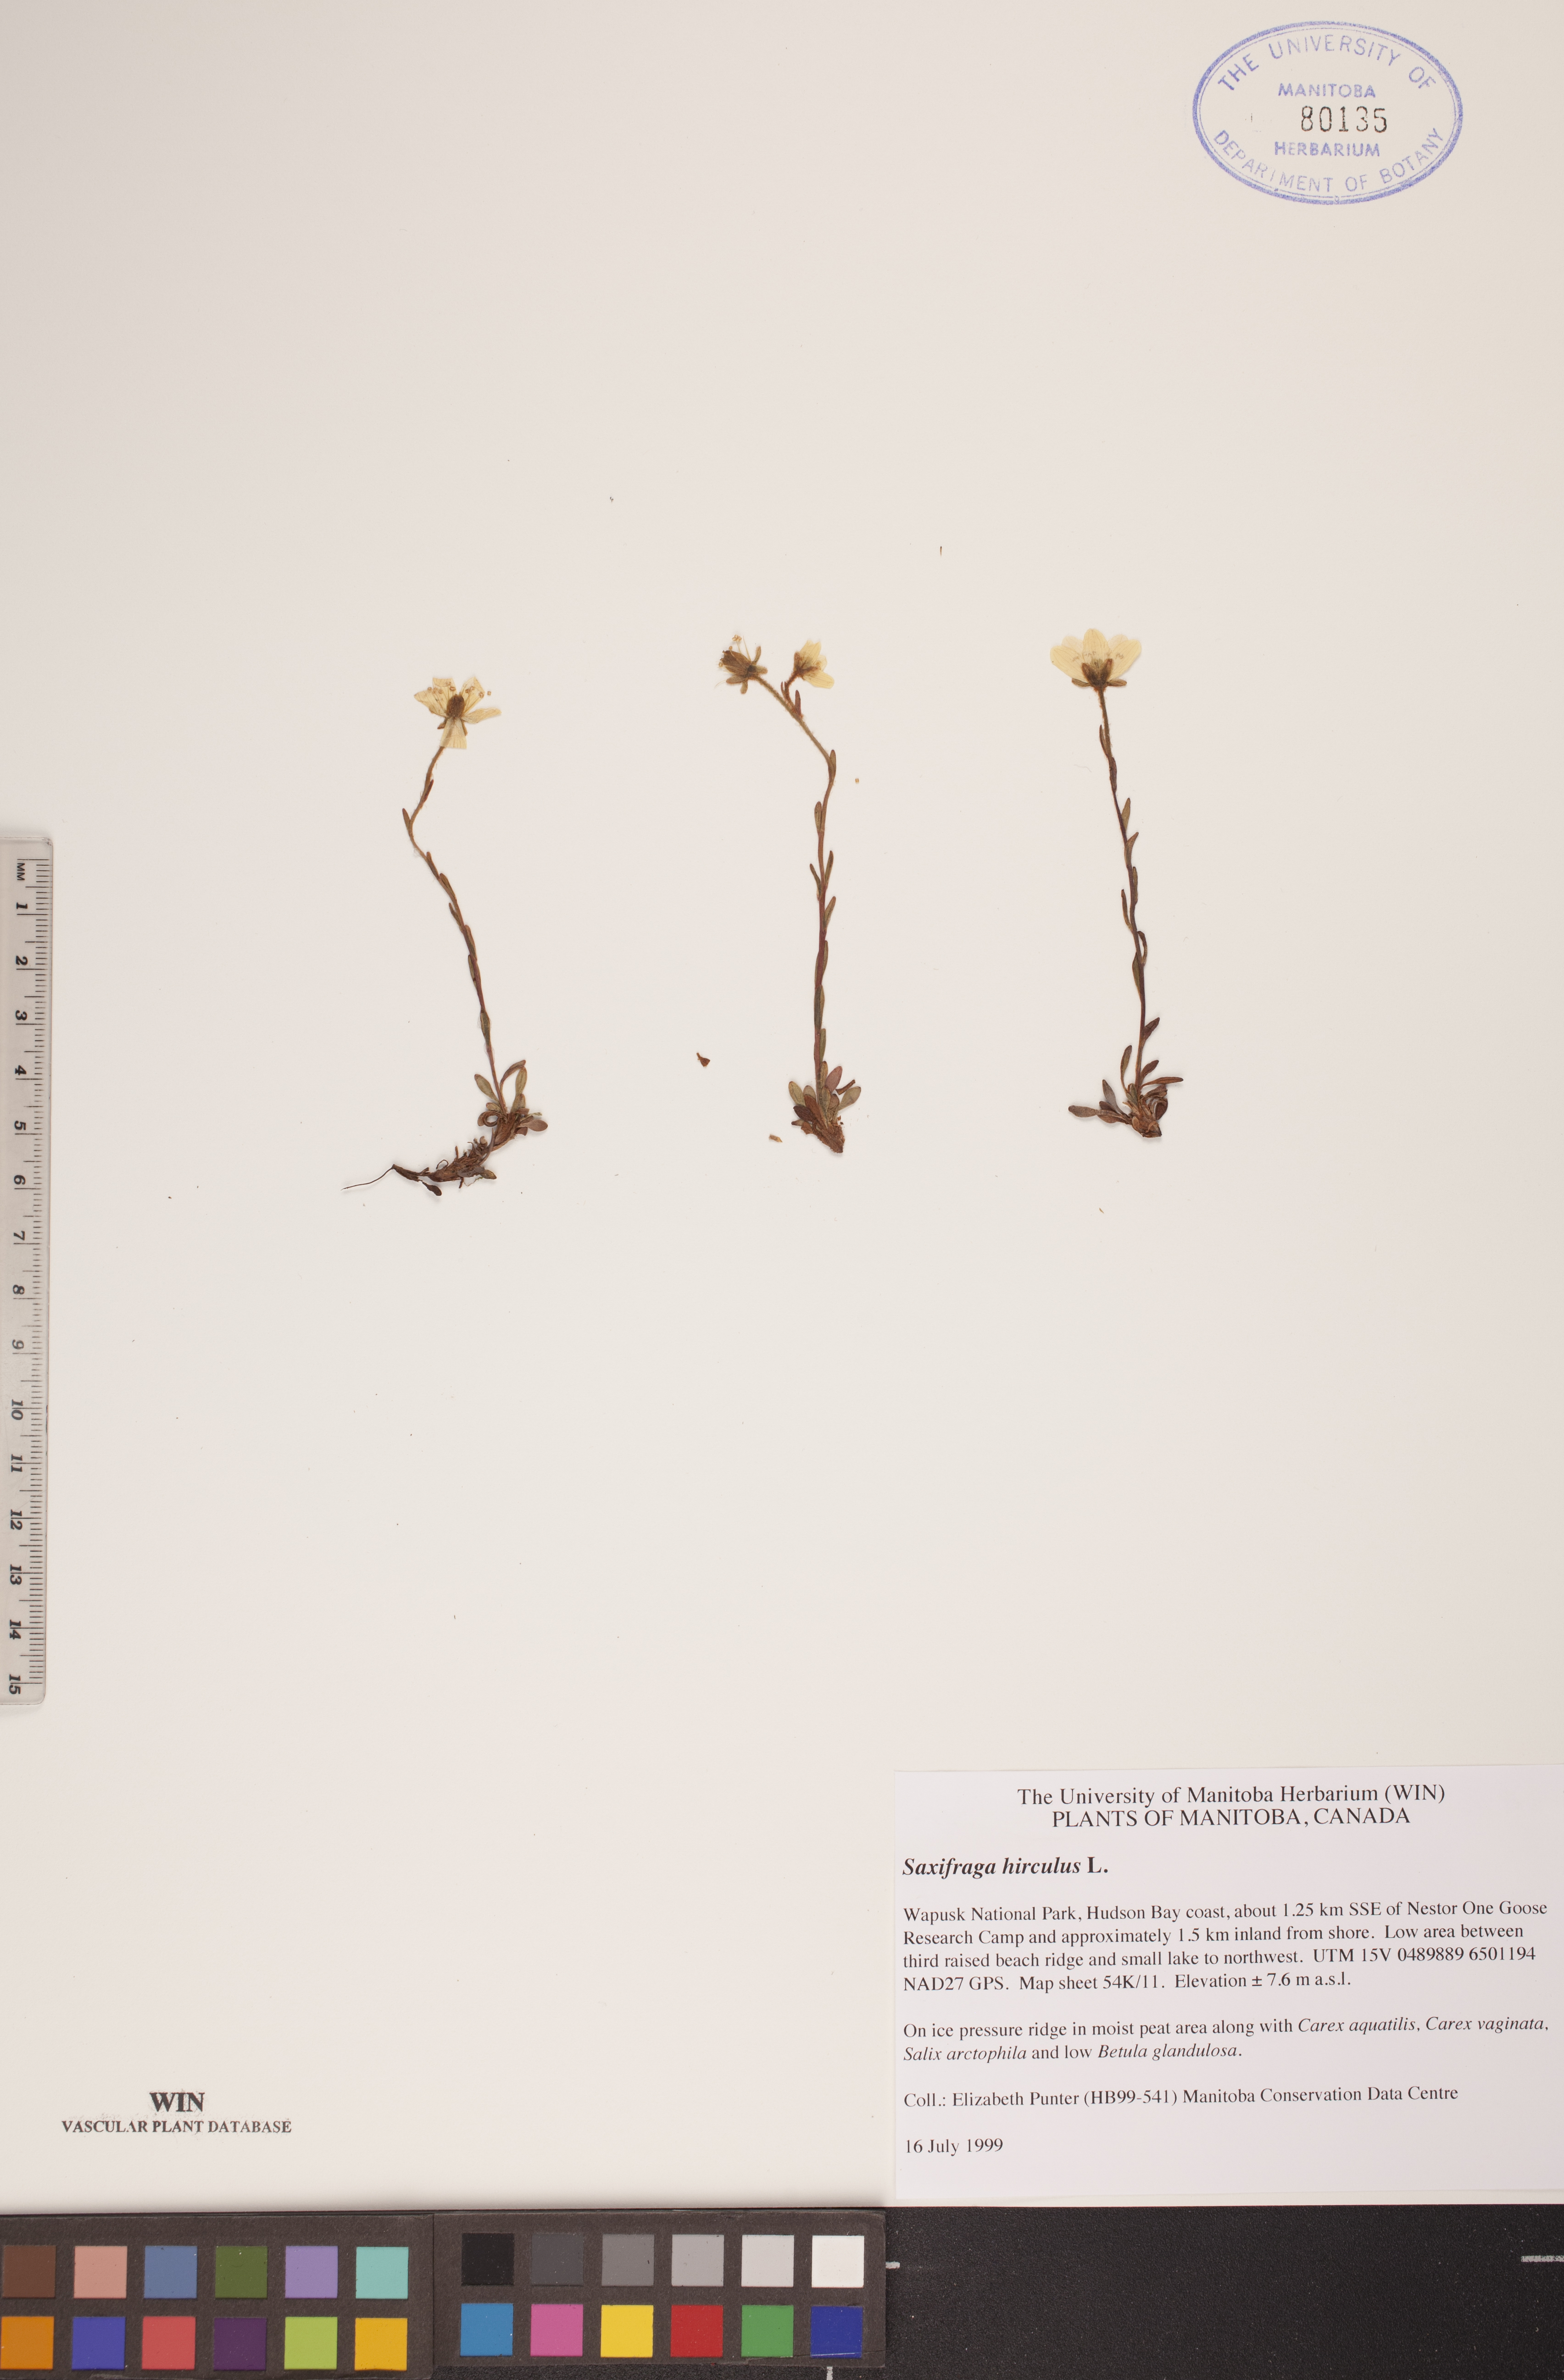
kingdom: Plantae
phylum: Tracheophyta
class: Magnoliopsida
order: Saxifragales
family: Saxifragaceae
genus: Saxifraga
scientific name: Saxifraga hirculus
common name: Yellow marsh saxifrage
